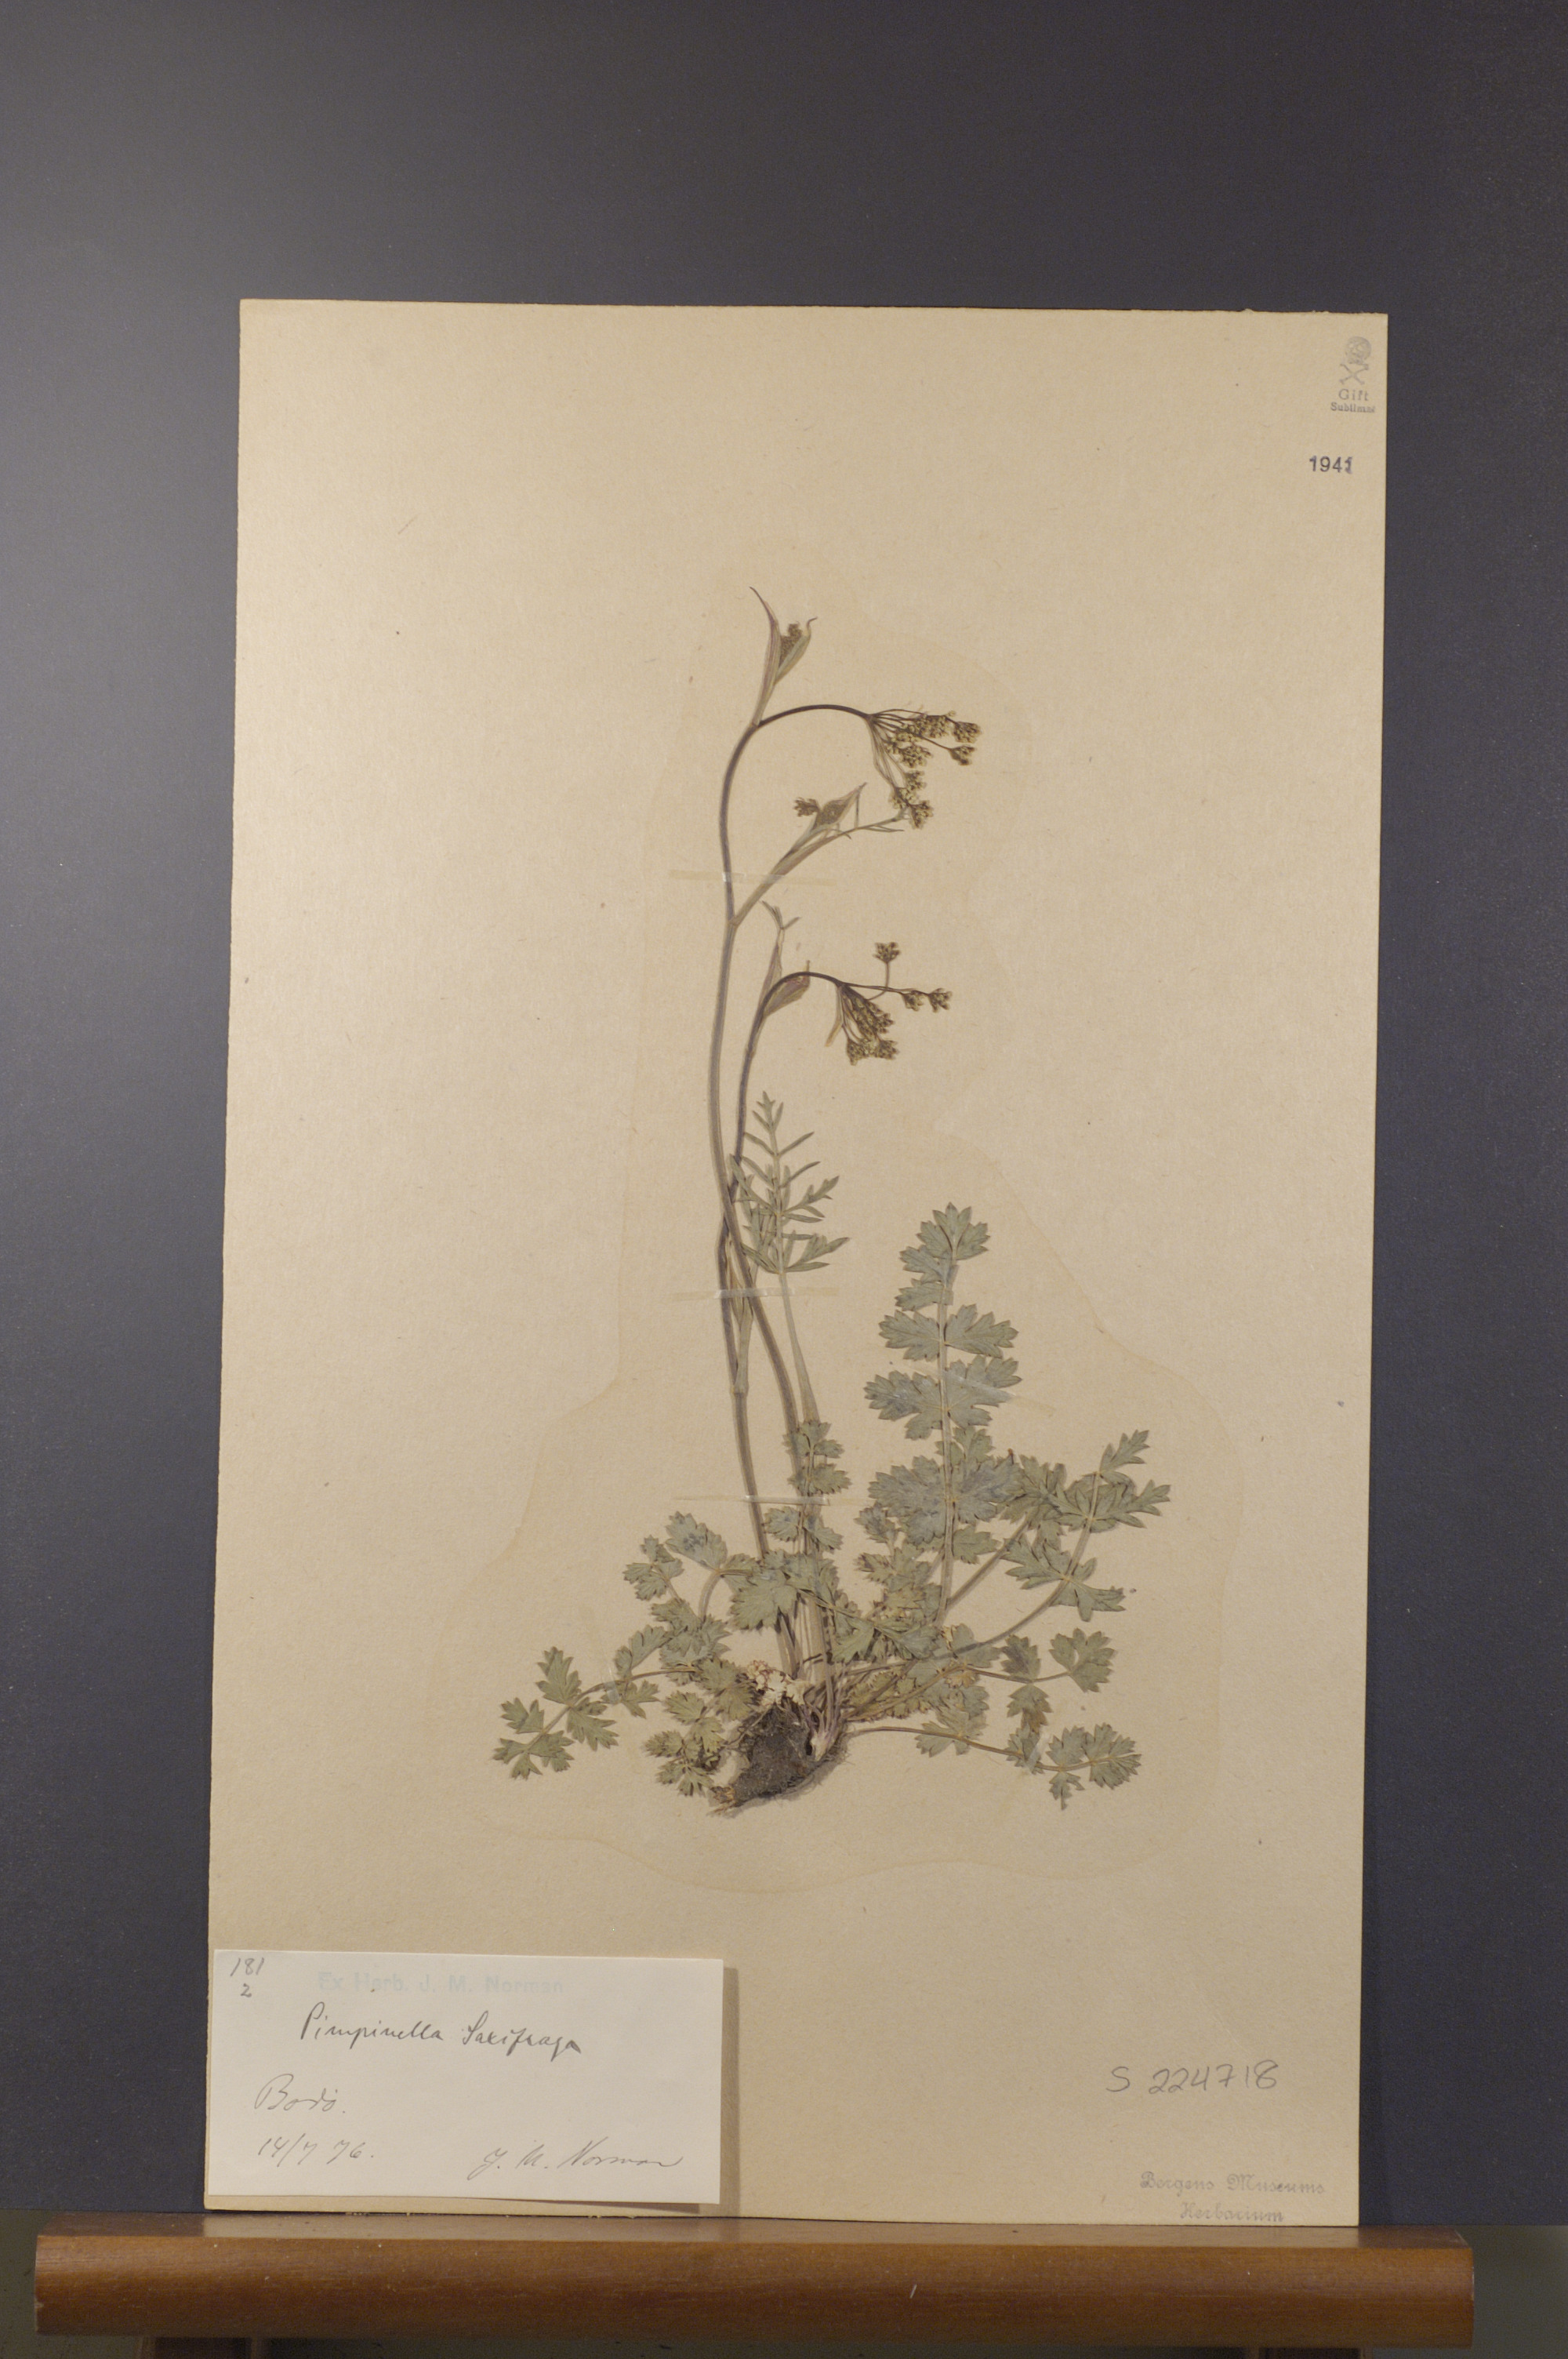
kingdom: Plantae
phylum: Tracheophyta
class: Magnoliopsida
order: Apiales
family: Apiaceae
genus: Pimpinella
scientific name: Pimpinella saxifraga
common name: Burnet-saxifrage
